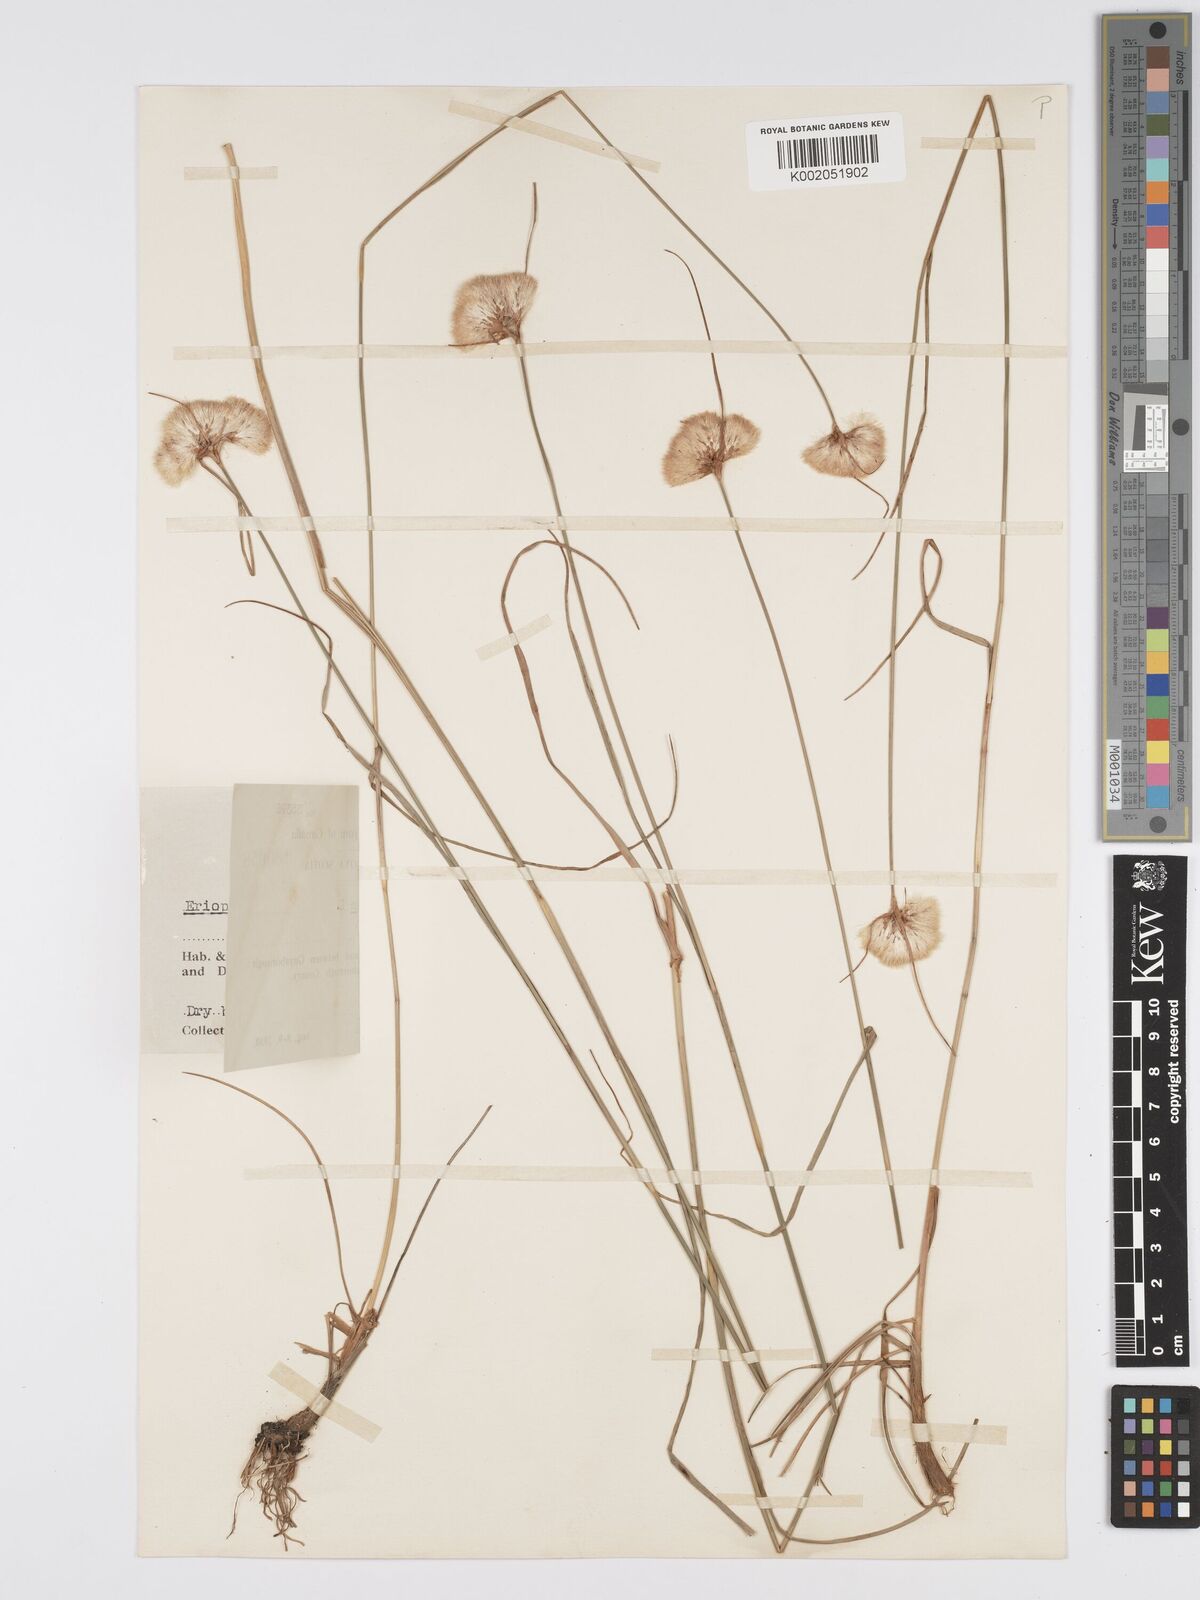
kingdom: Plantae
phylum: Tracheophyta
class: Liliopsida
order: Poales
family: Cyperaceae
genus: Eriophorum
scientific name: Eriophorum virginicum
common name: Tawny cottongrass
